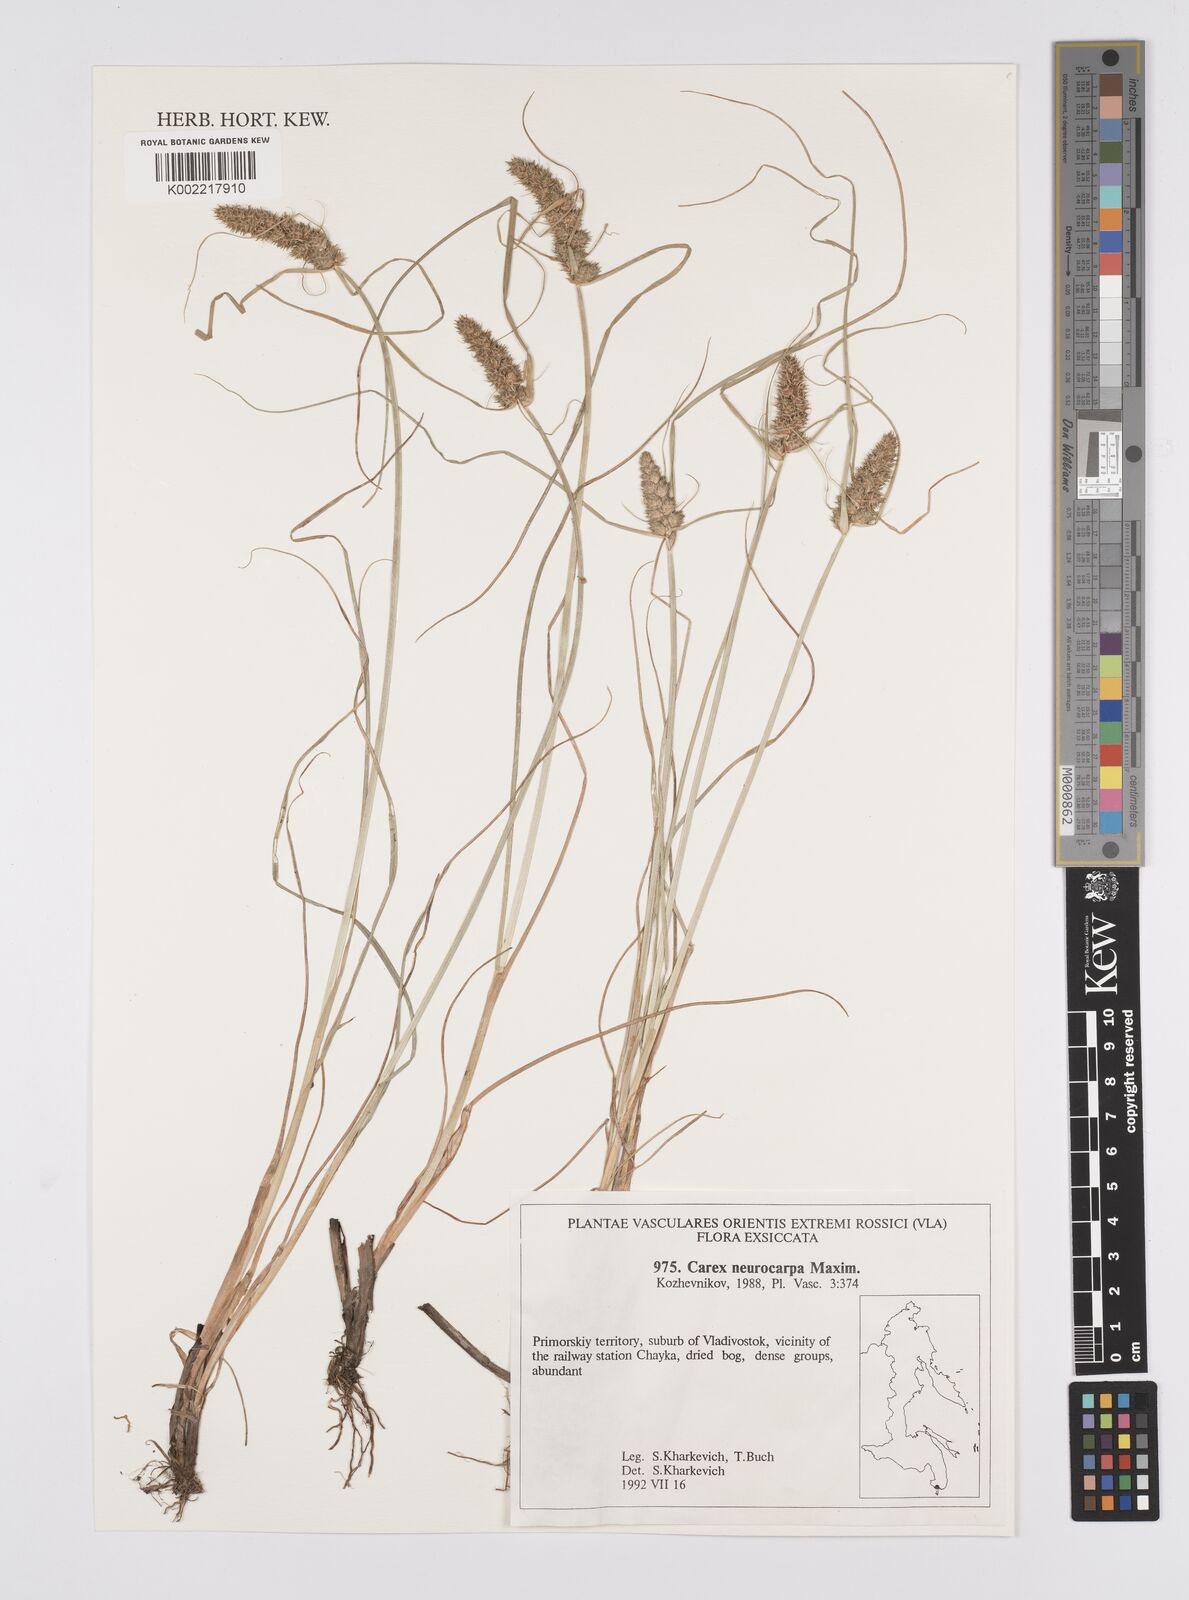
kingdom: Plantae
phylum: Tracheophyta
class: Liliopsida
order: Poales
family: Cyperaceae
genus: Carex
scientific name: Carex neurocarpa
